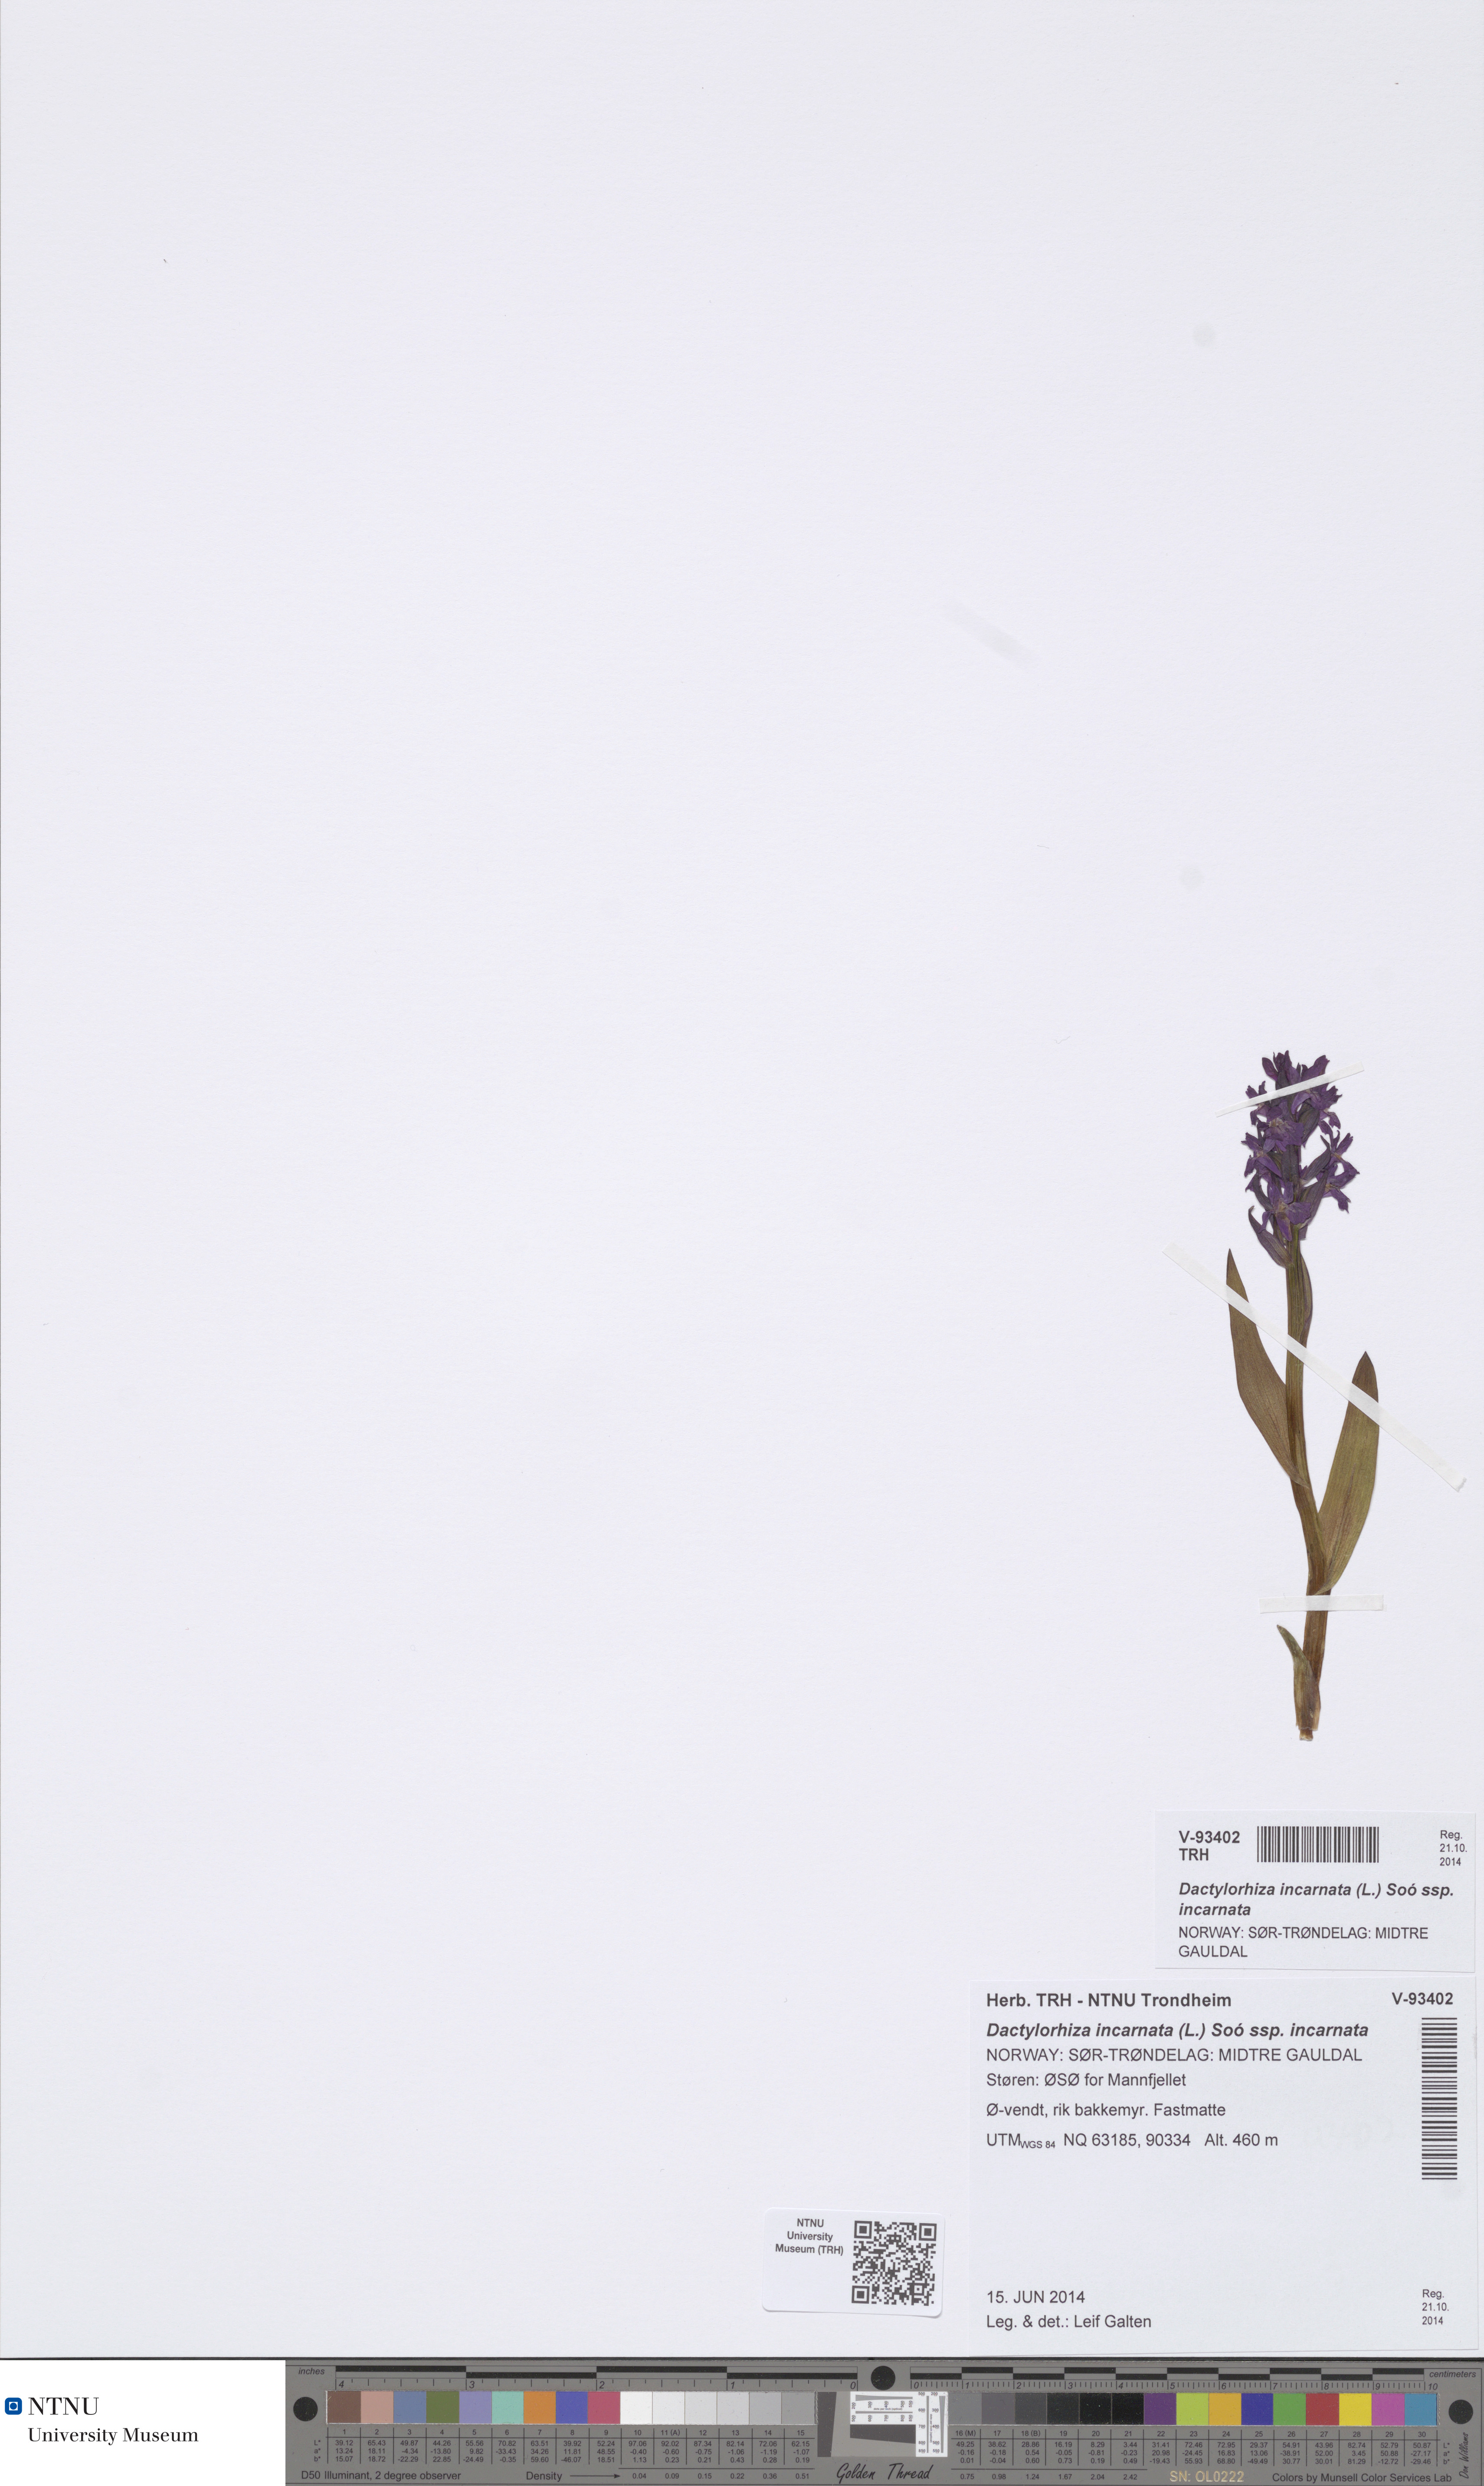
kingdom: Plantae
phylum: Tracheophyta
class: Liliopsida
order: Asparagales
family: Orchidaceae
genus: Dactylorhiza
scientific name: Dactylorhiza incarnata
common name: Early marsh-orchid
